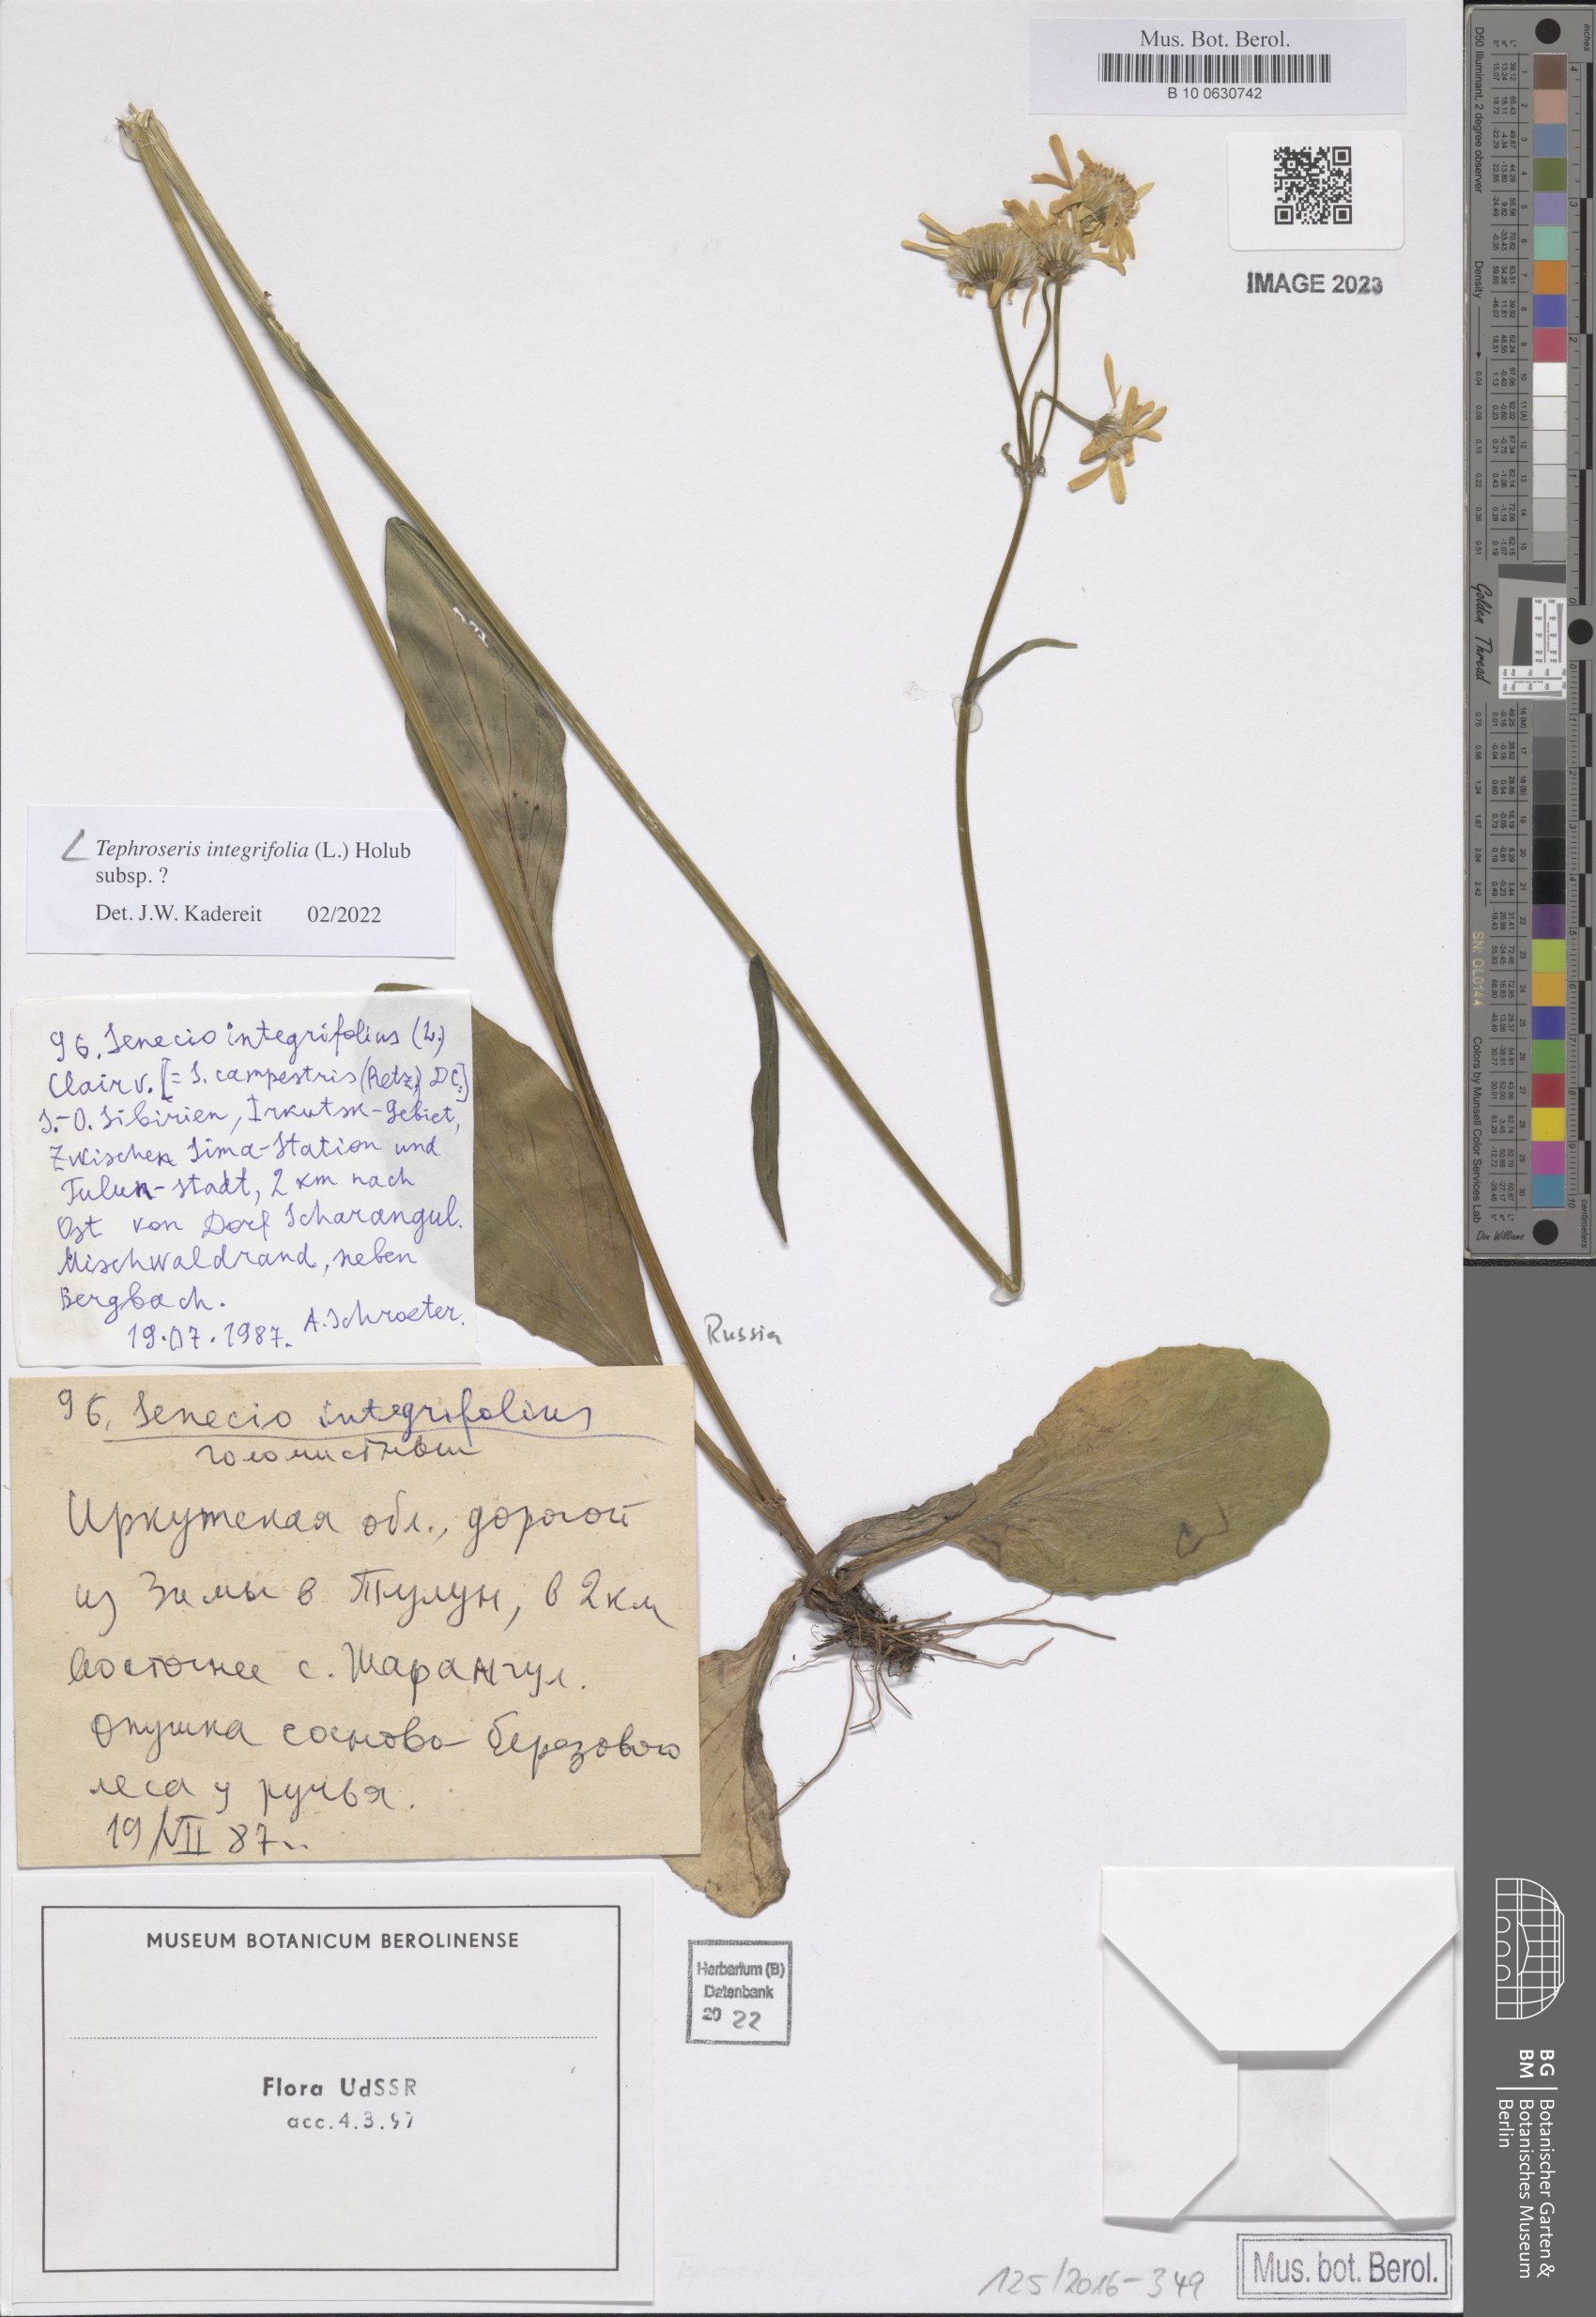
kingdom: Plantae
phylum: Tracheophyta
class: Magnoliopsida
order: Asterales
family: Asteraceae
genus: Tephroseris
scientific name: Tephroseris integrifolia
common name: Field fleawort
